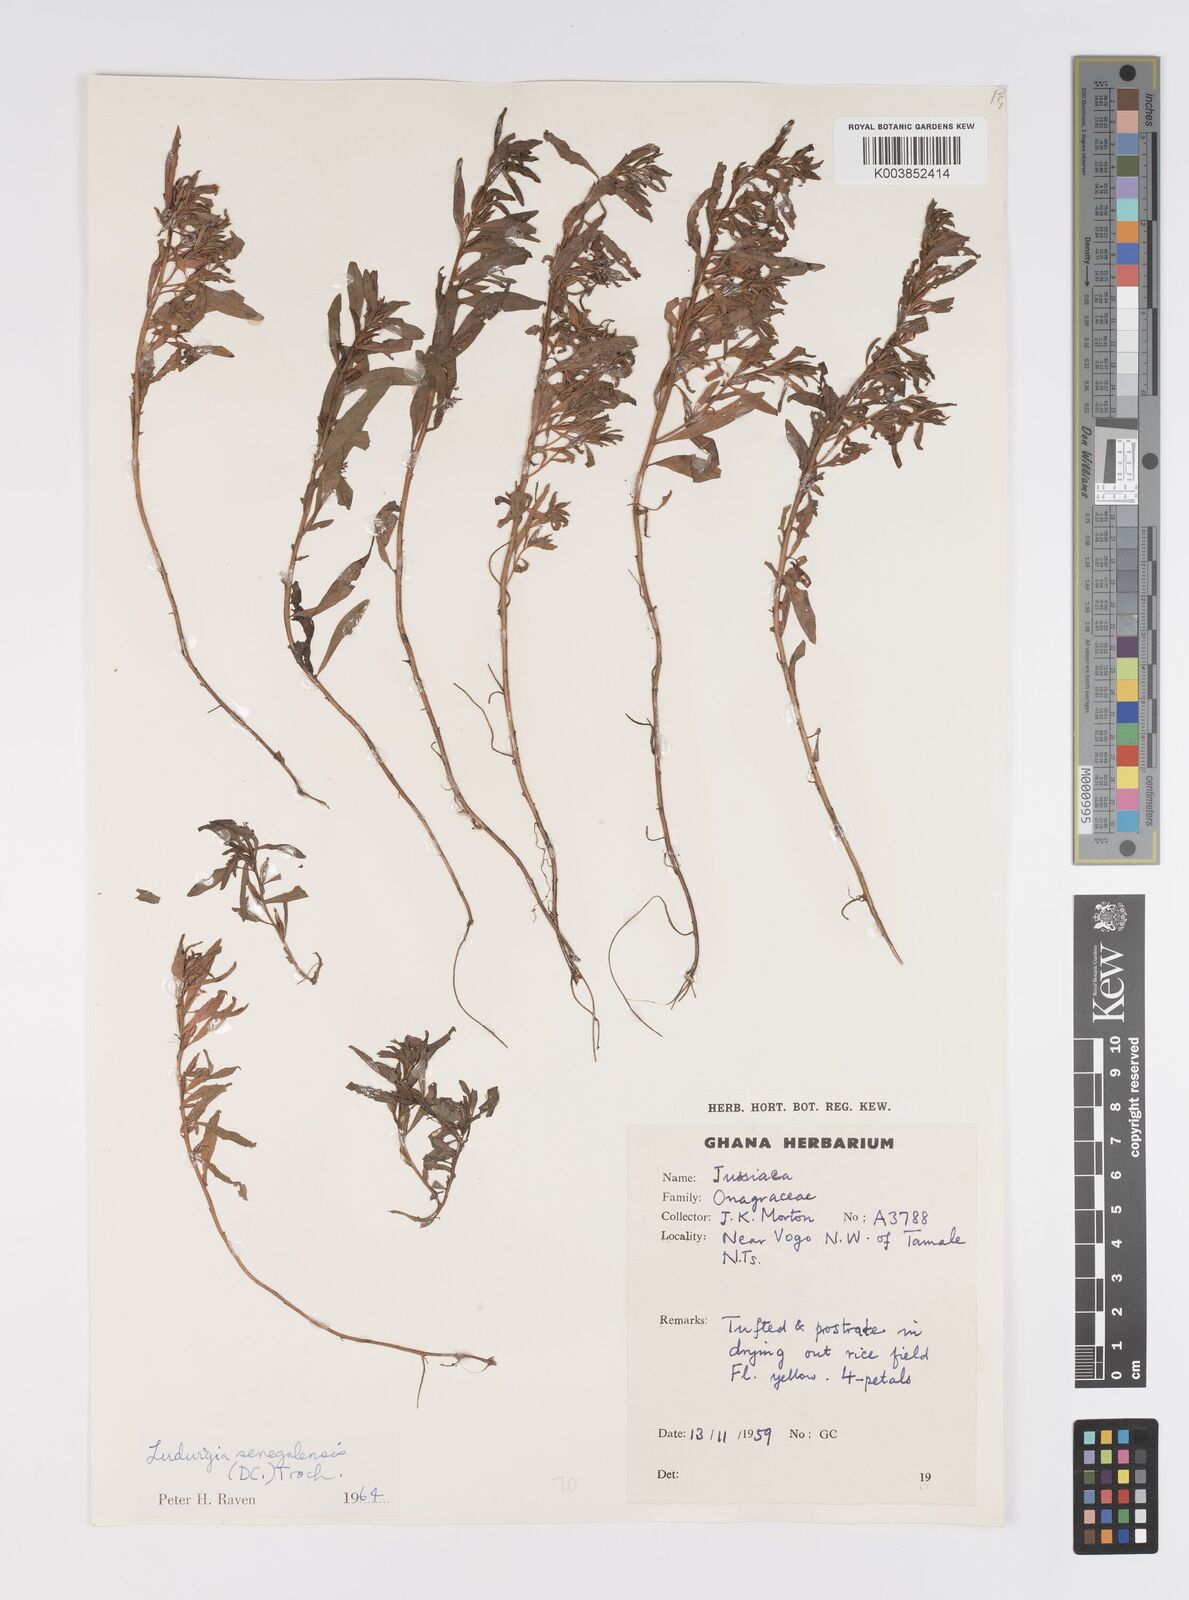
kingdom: Plantae
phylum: Tracheophyta
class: Magnoliopsida
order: Myrtales
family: Onagraceae
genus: Ludwigia
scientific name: Ludwigia senegalensis
